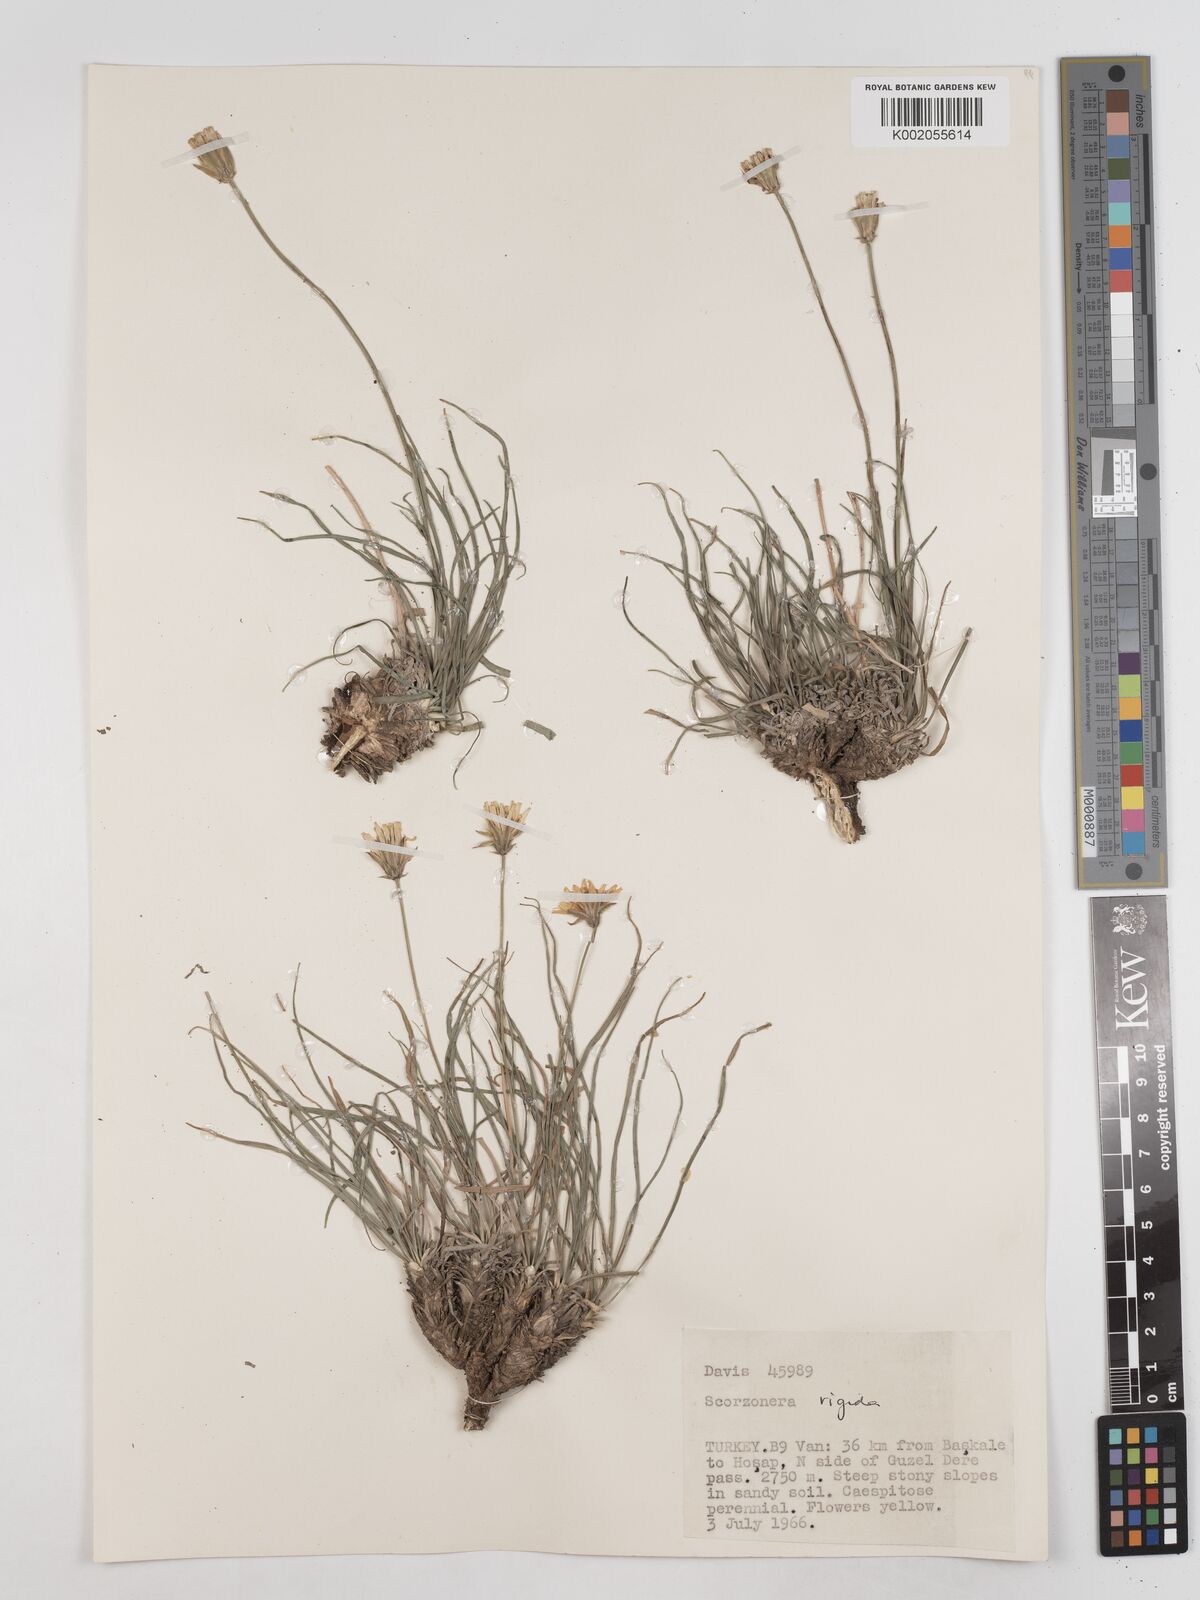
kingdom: Plantae
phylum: Tracheophyta
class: Magnoliopsida
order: Asterales
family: Asteraceae
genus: Scorzonera
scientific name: Scorzonera
